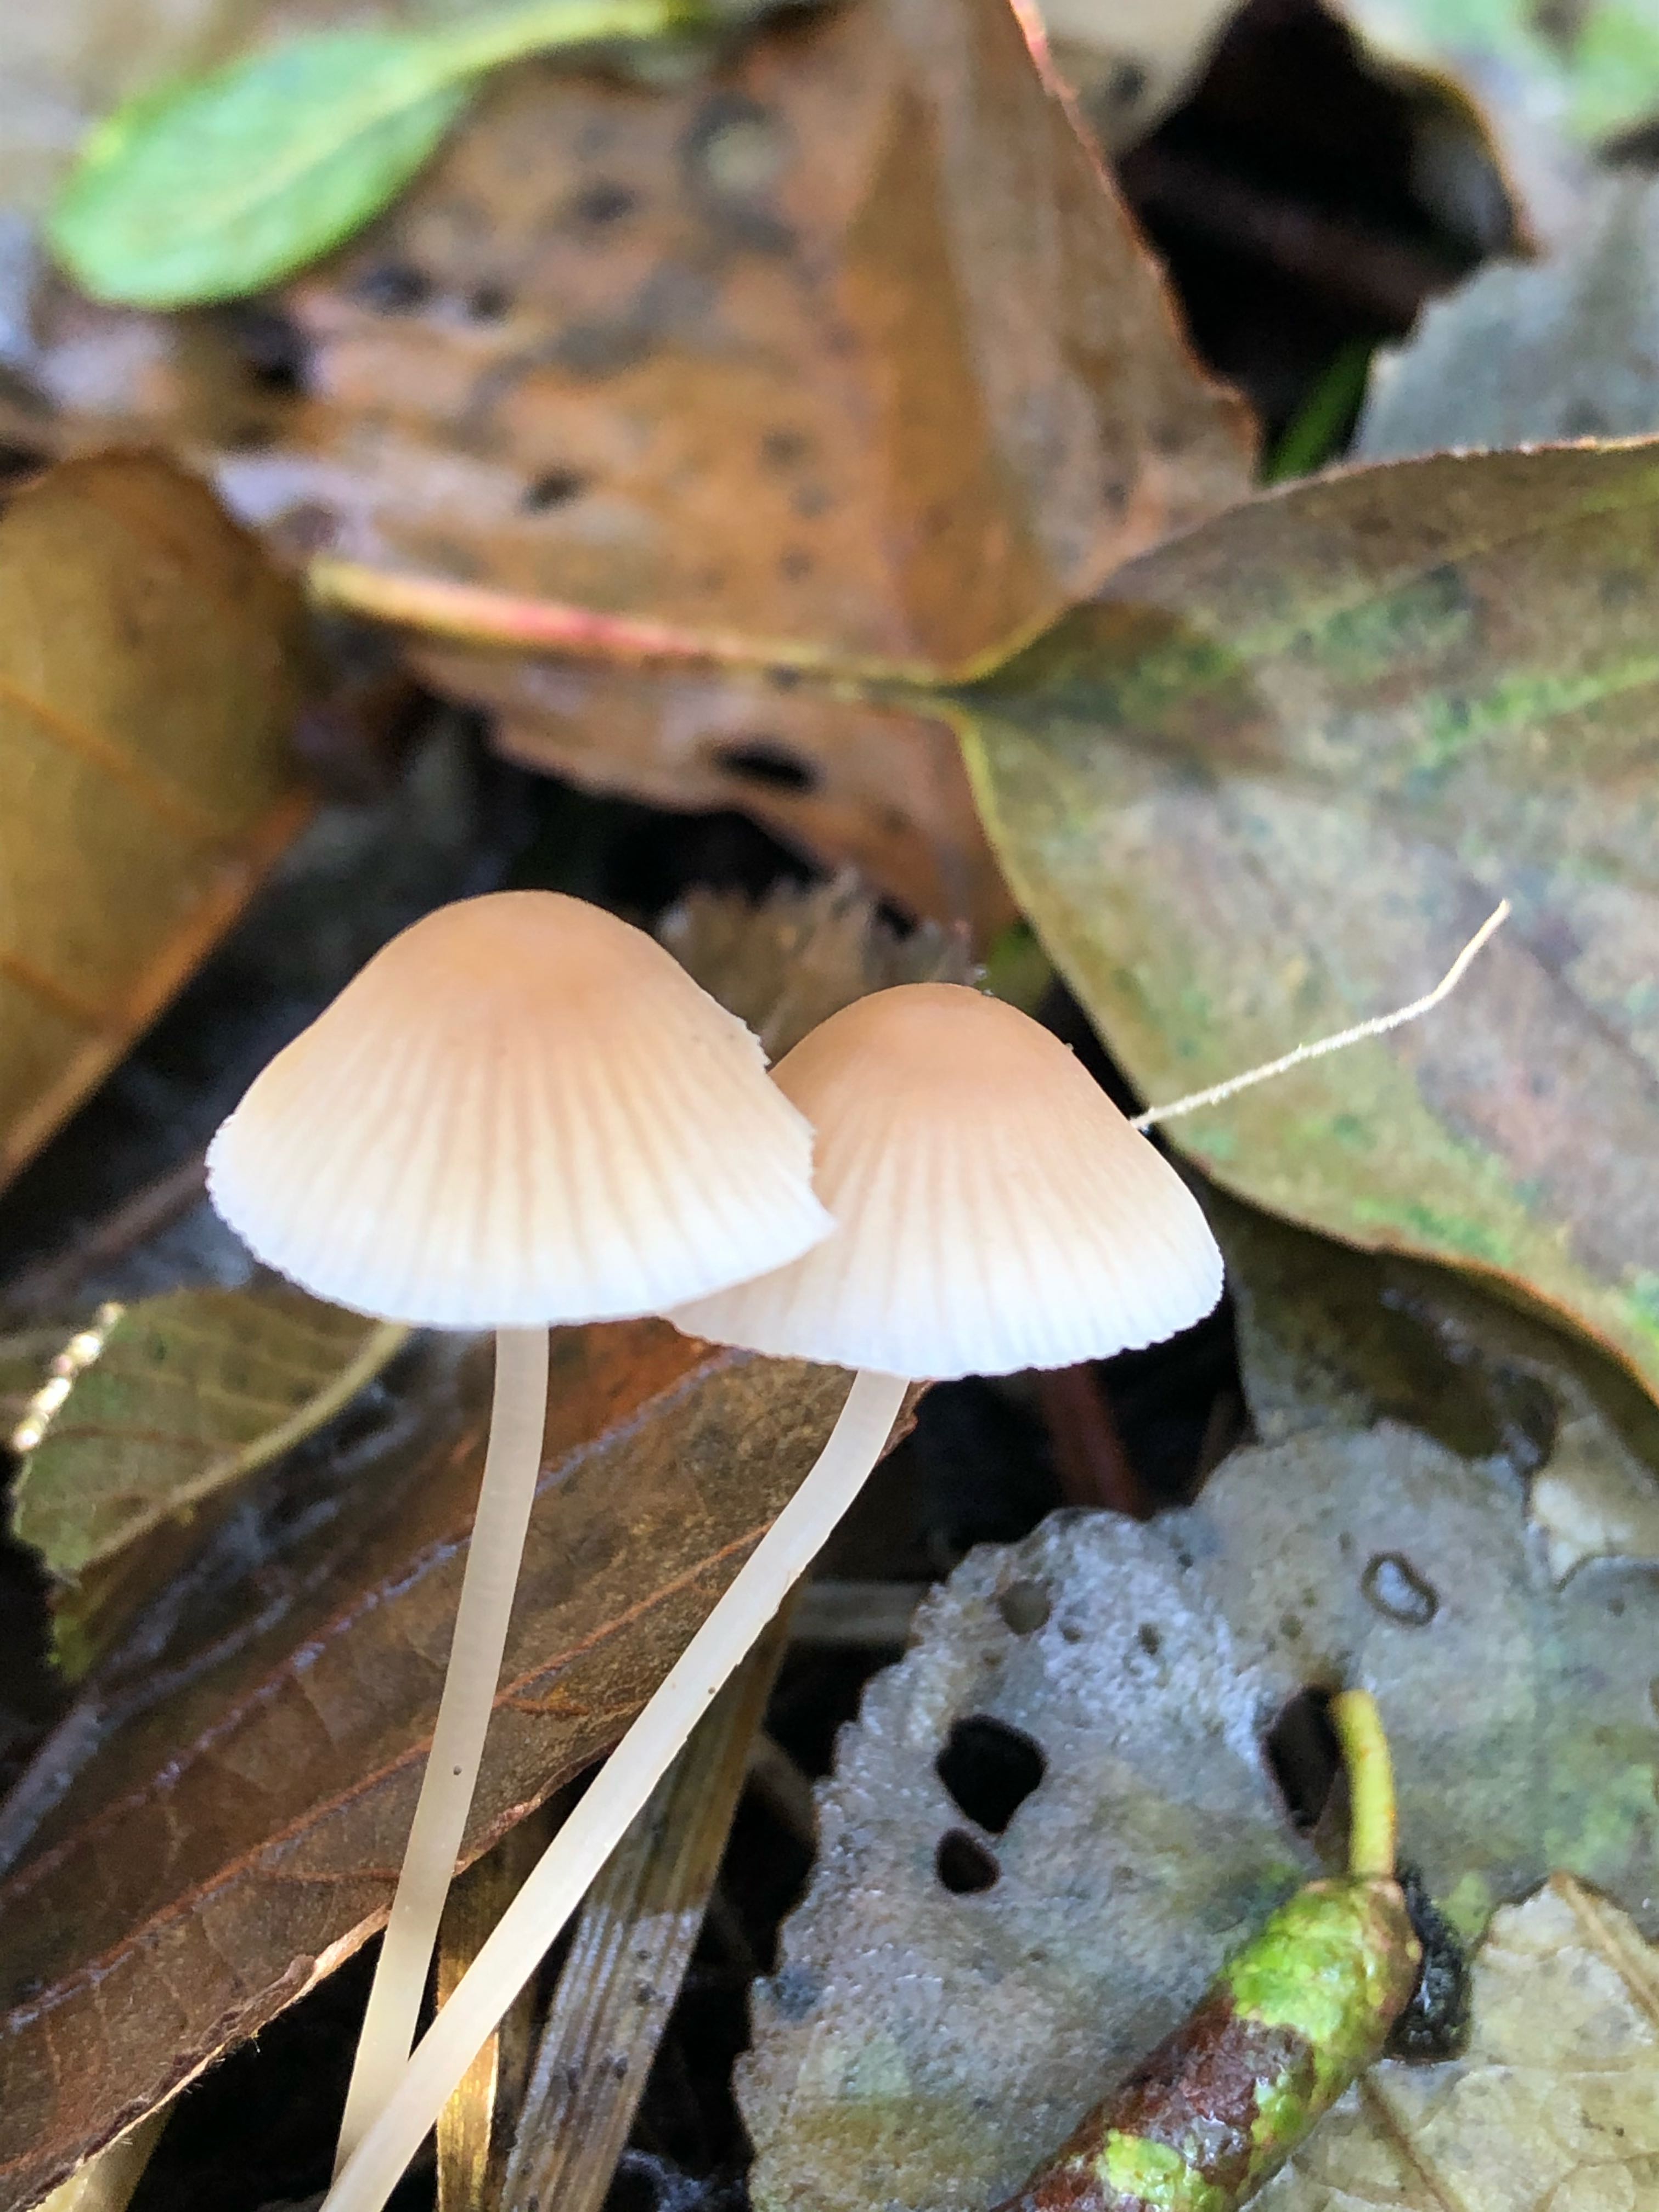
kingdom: Fungi
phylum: Basidiomycota
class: Agaricomycetes
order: Agaricales
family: Mycenaceae
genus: Mycena
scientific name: Mycena metata
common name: rødlig huesvamp
